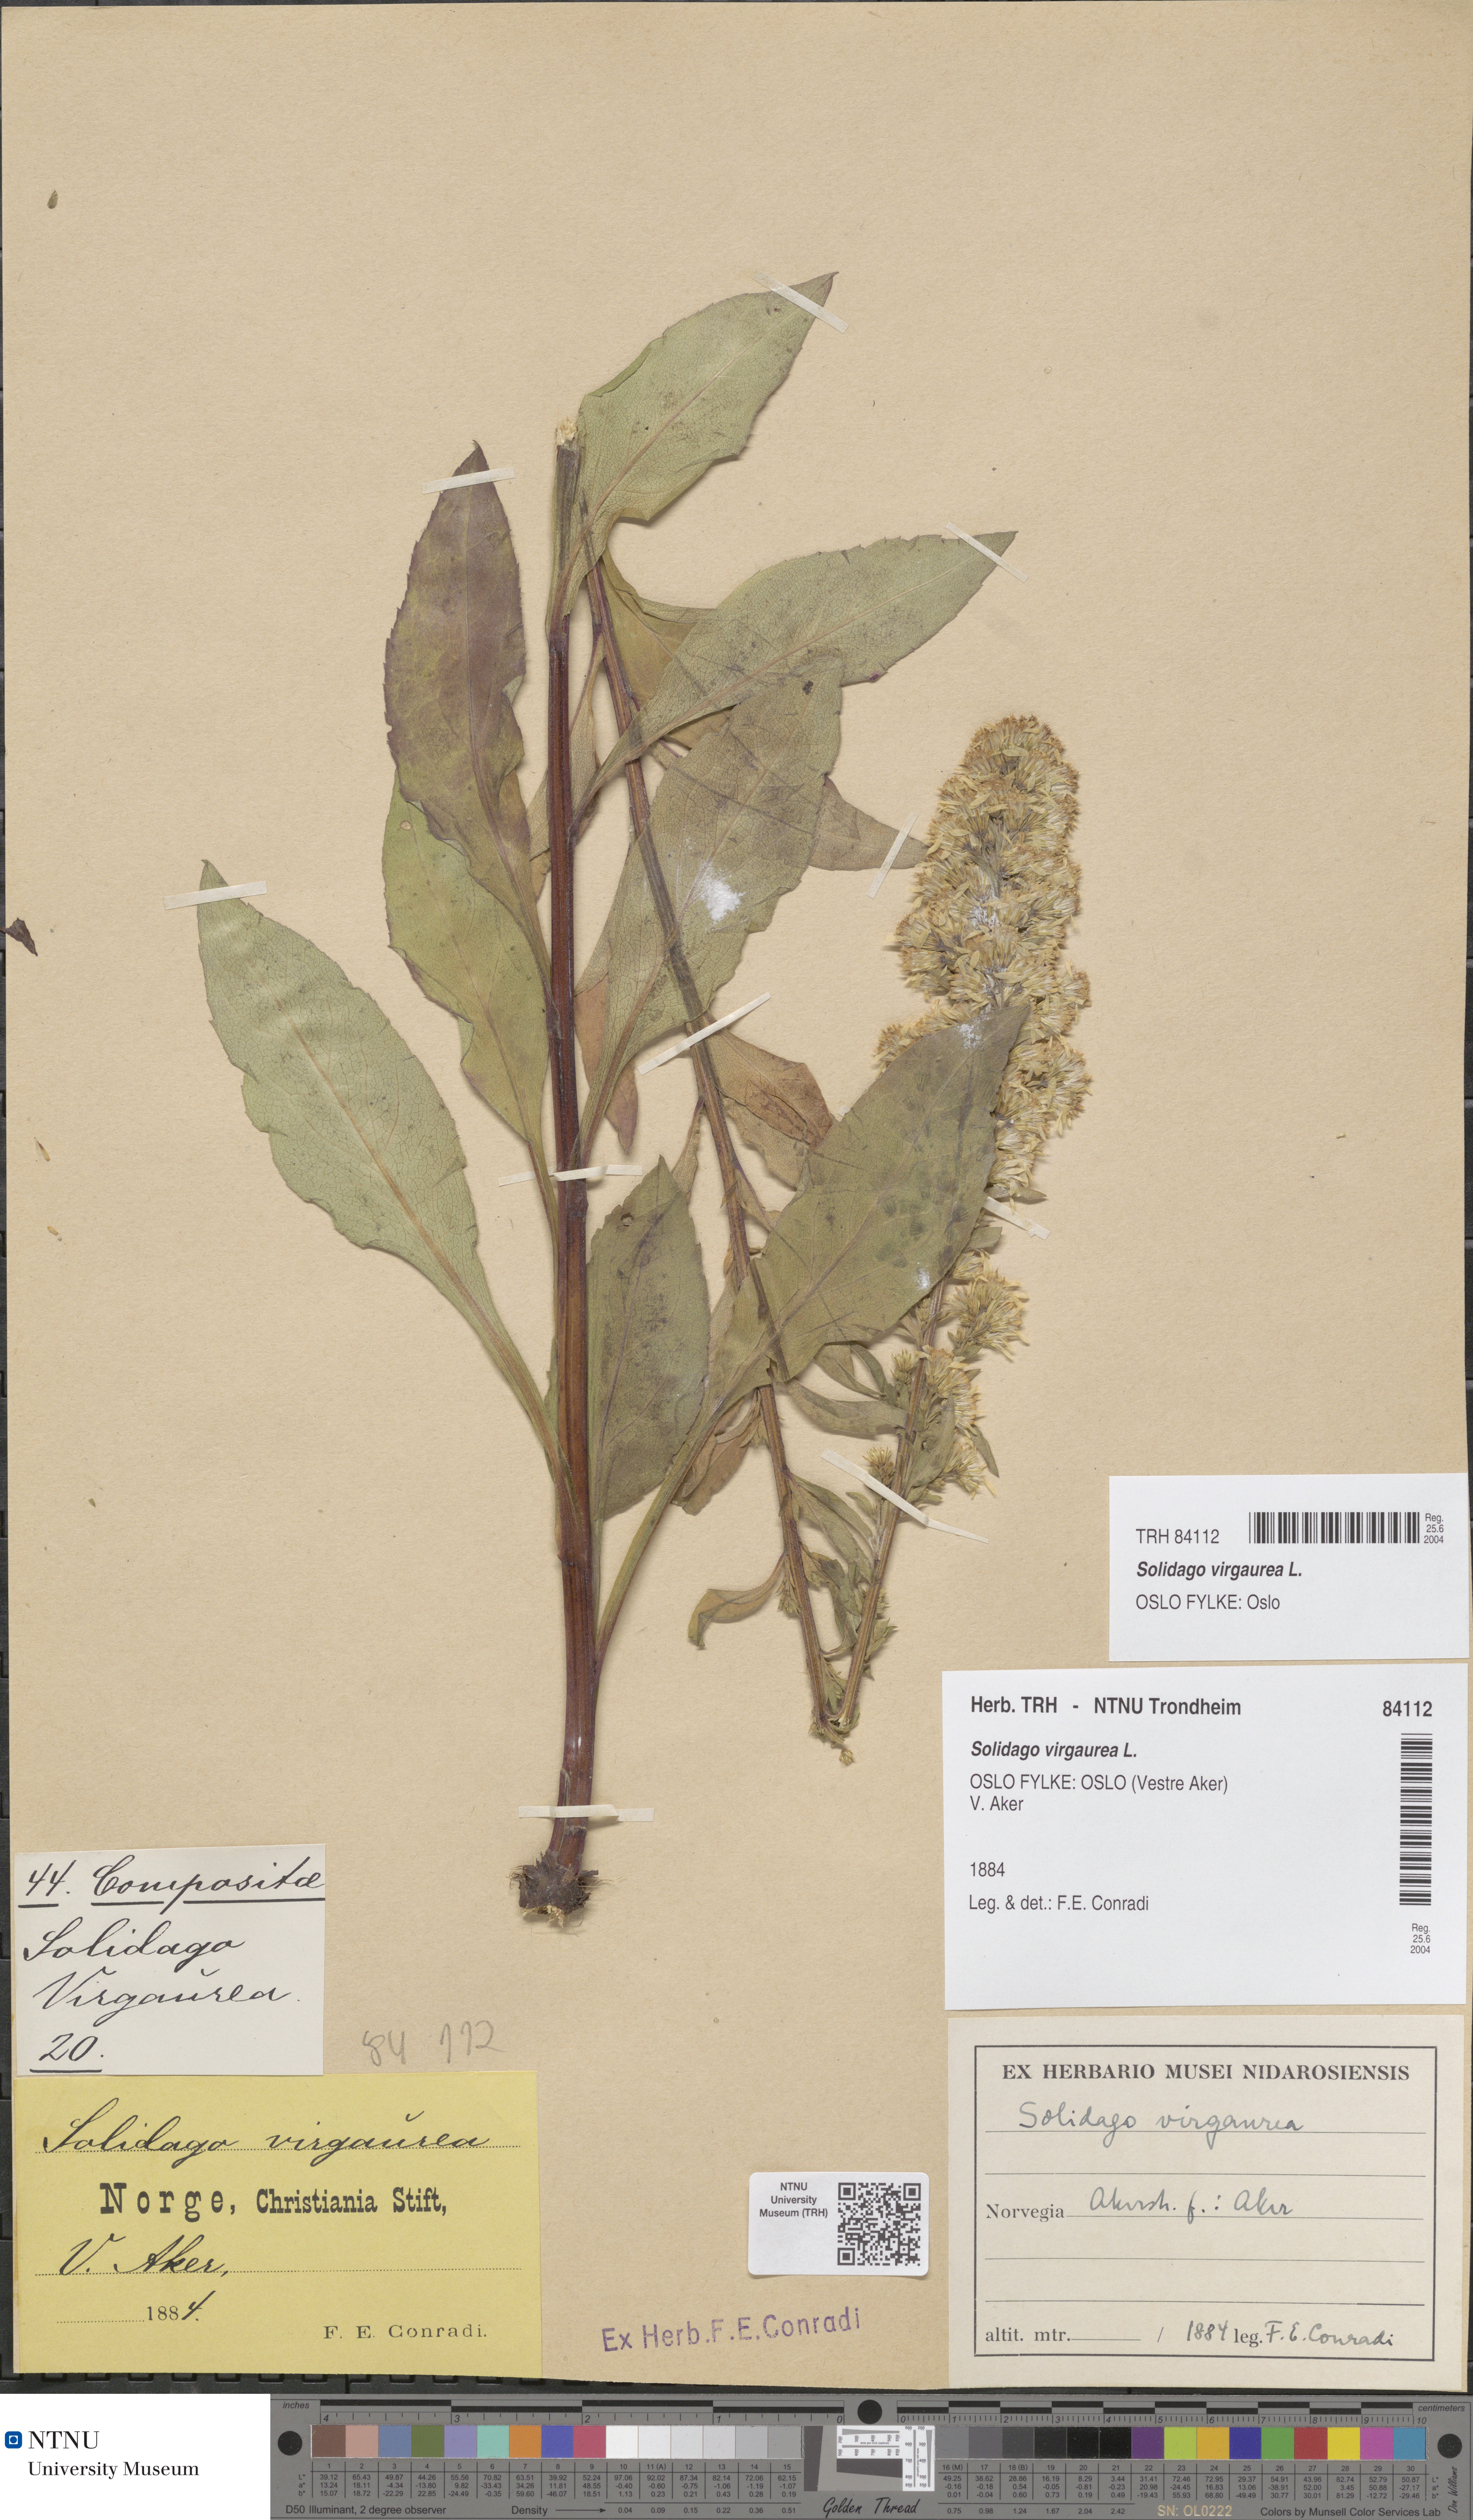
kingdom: Plantae
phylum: Tracheophyta
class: Magnoliopsida
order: Asterales
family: Asteraceae
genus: Solidago
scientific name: Solidago virgaurea
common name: Goldenrod
